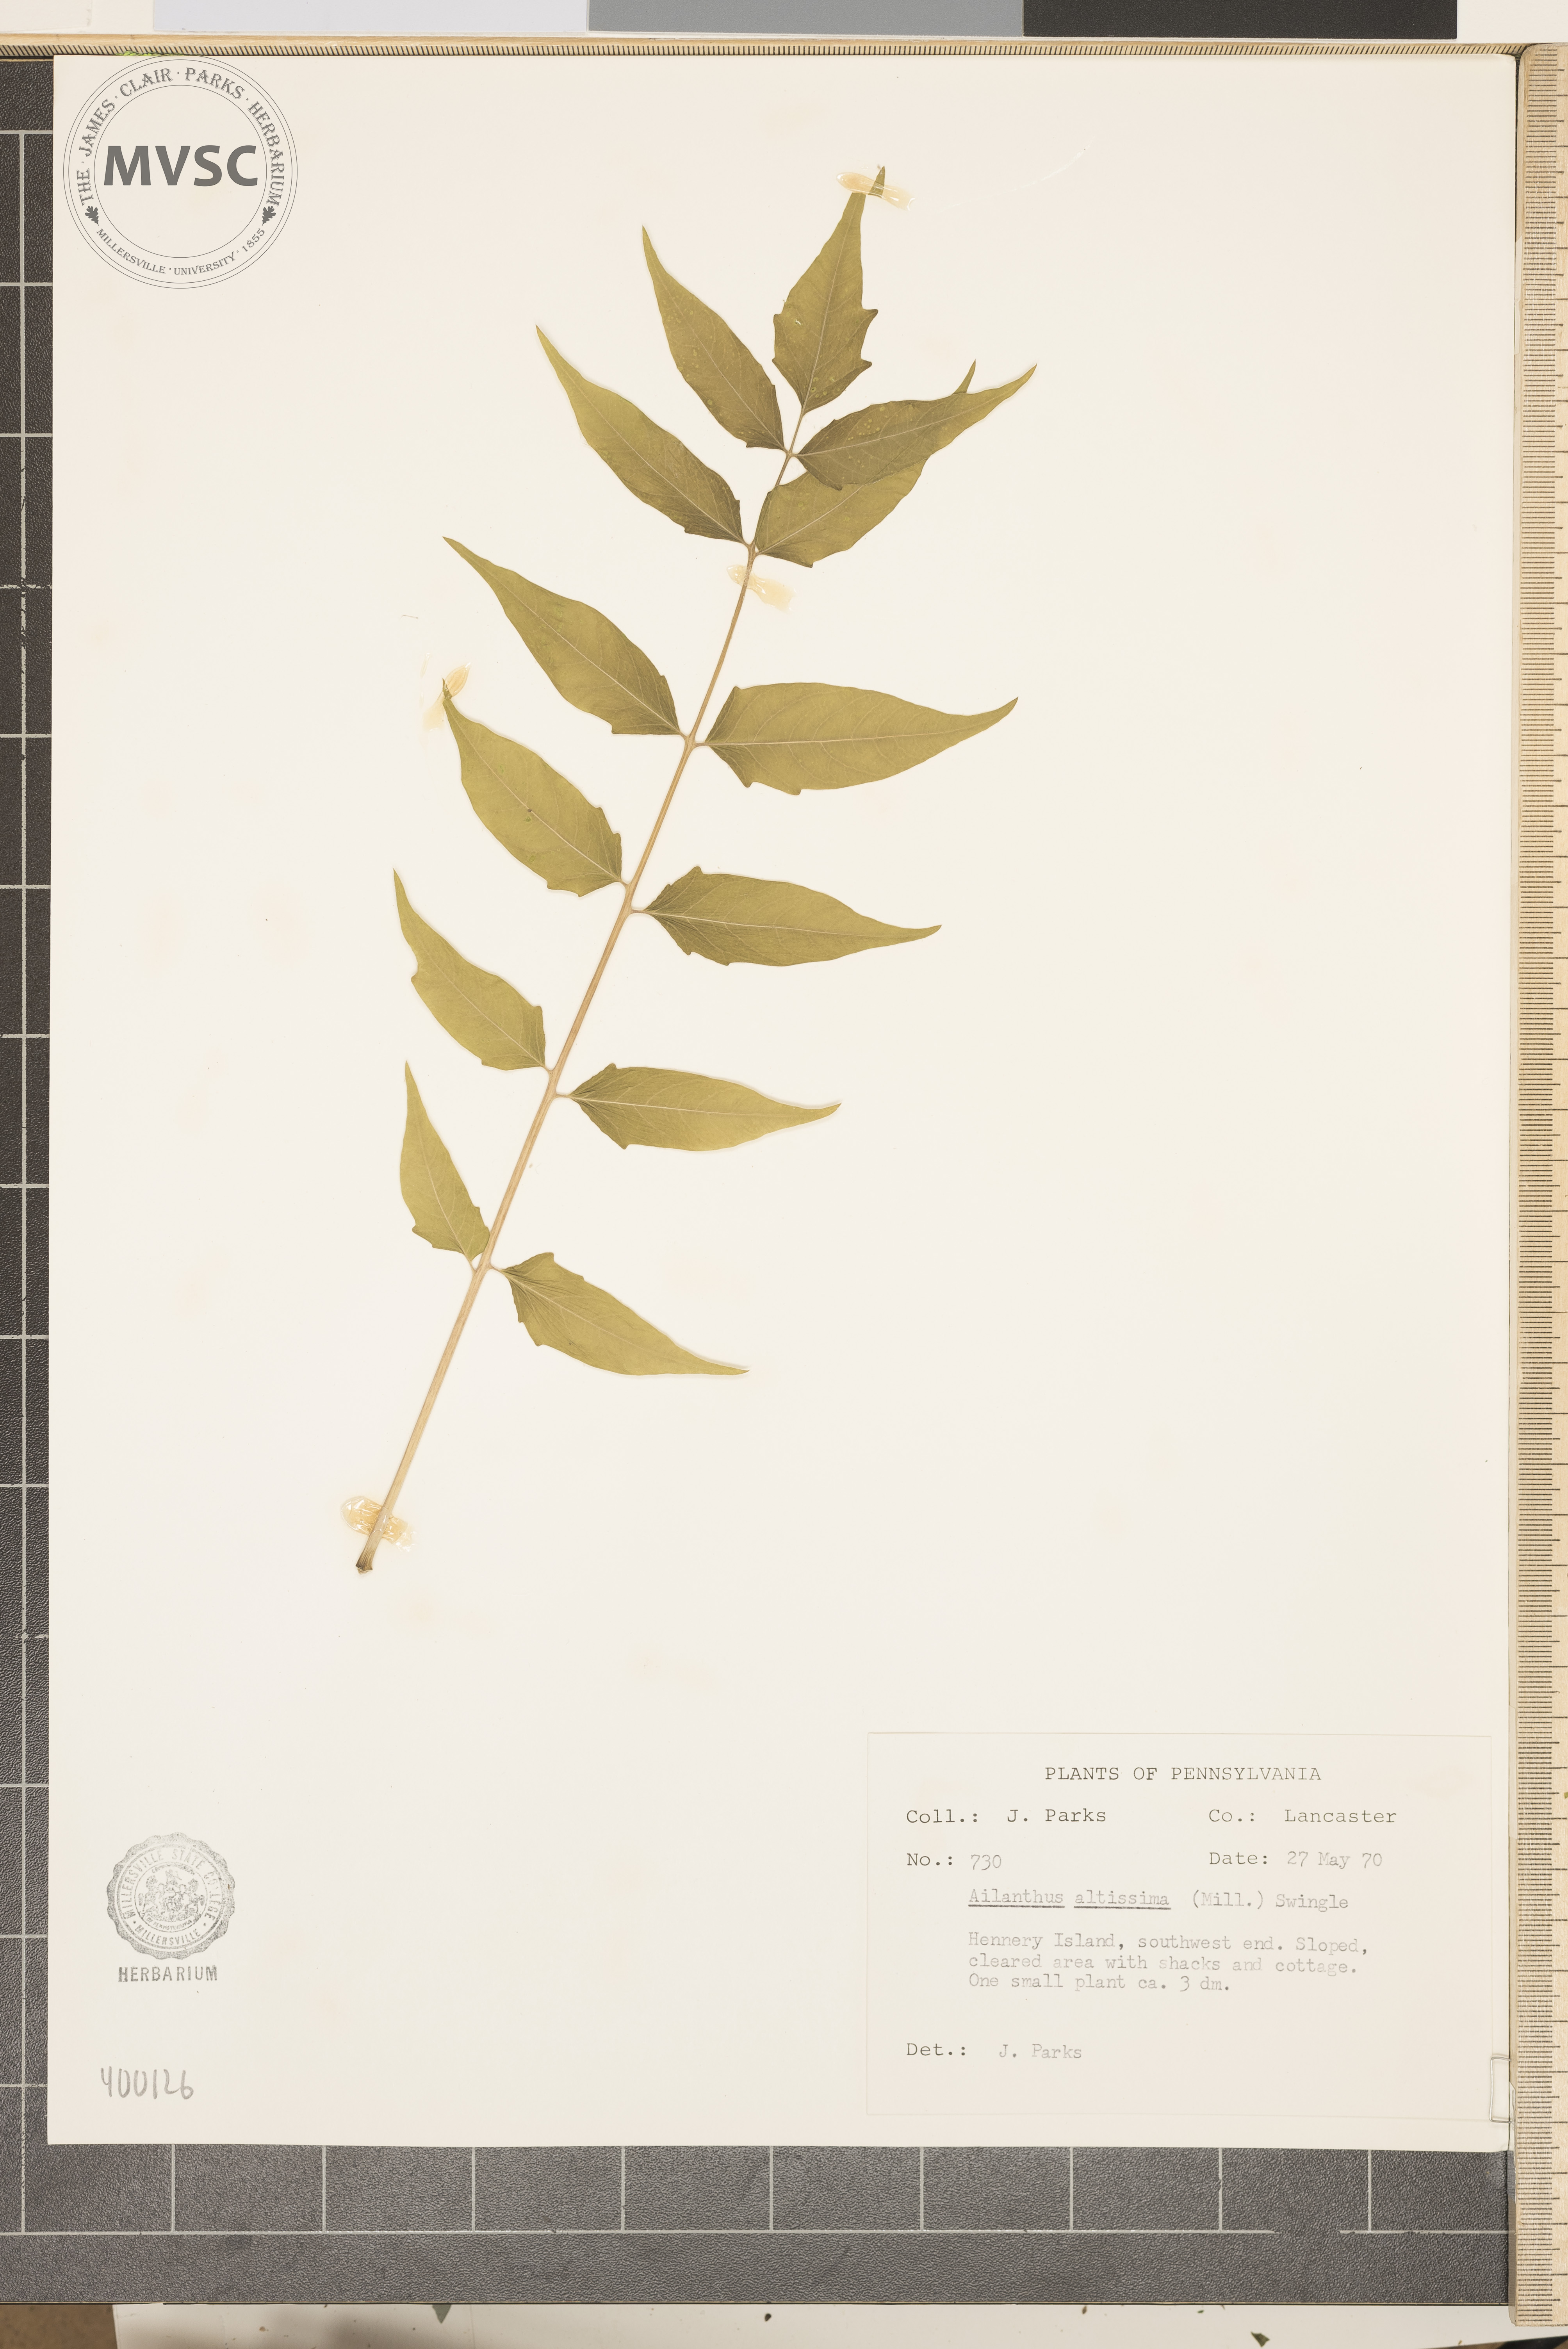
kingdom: Plantae
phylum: Tracheophyta
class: Magnoliopsida
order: Sapindales
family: Simaroubaceae
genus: Ailanthus
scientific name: Ailanthus altissima
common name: tree-of-heaven
